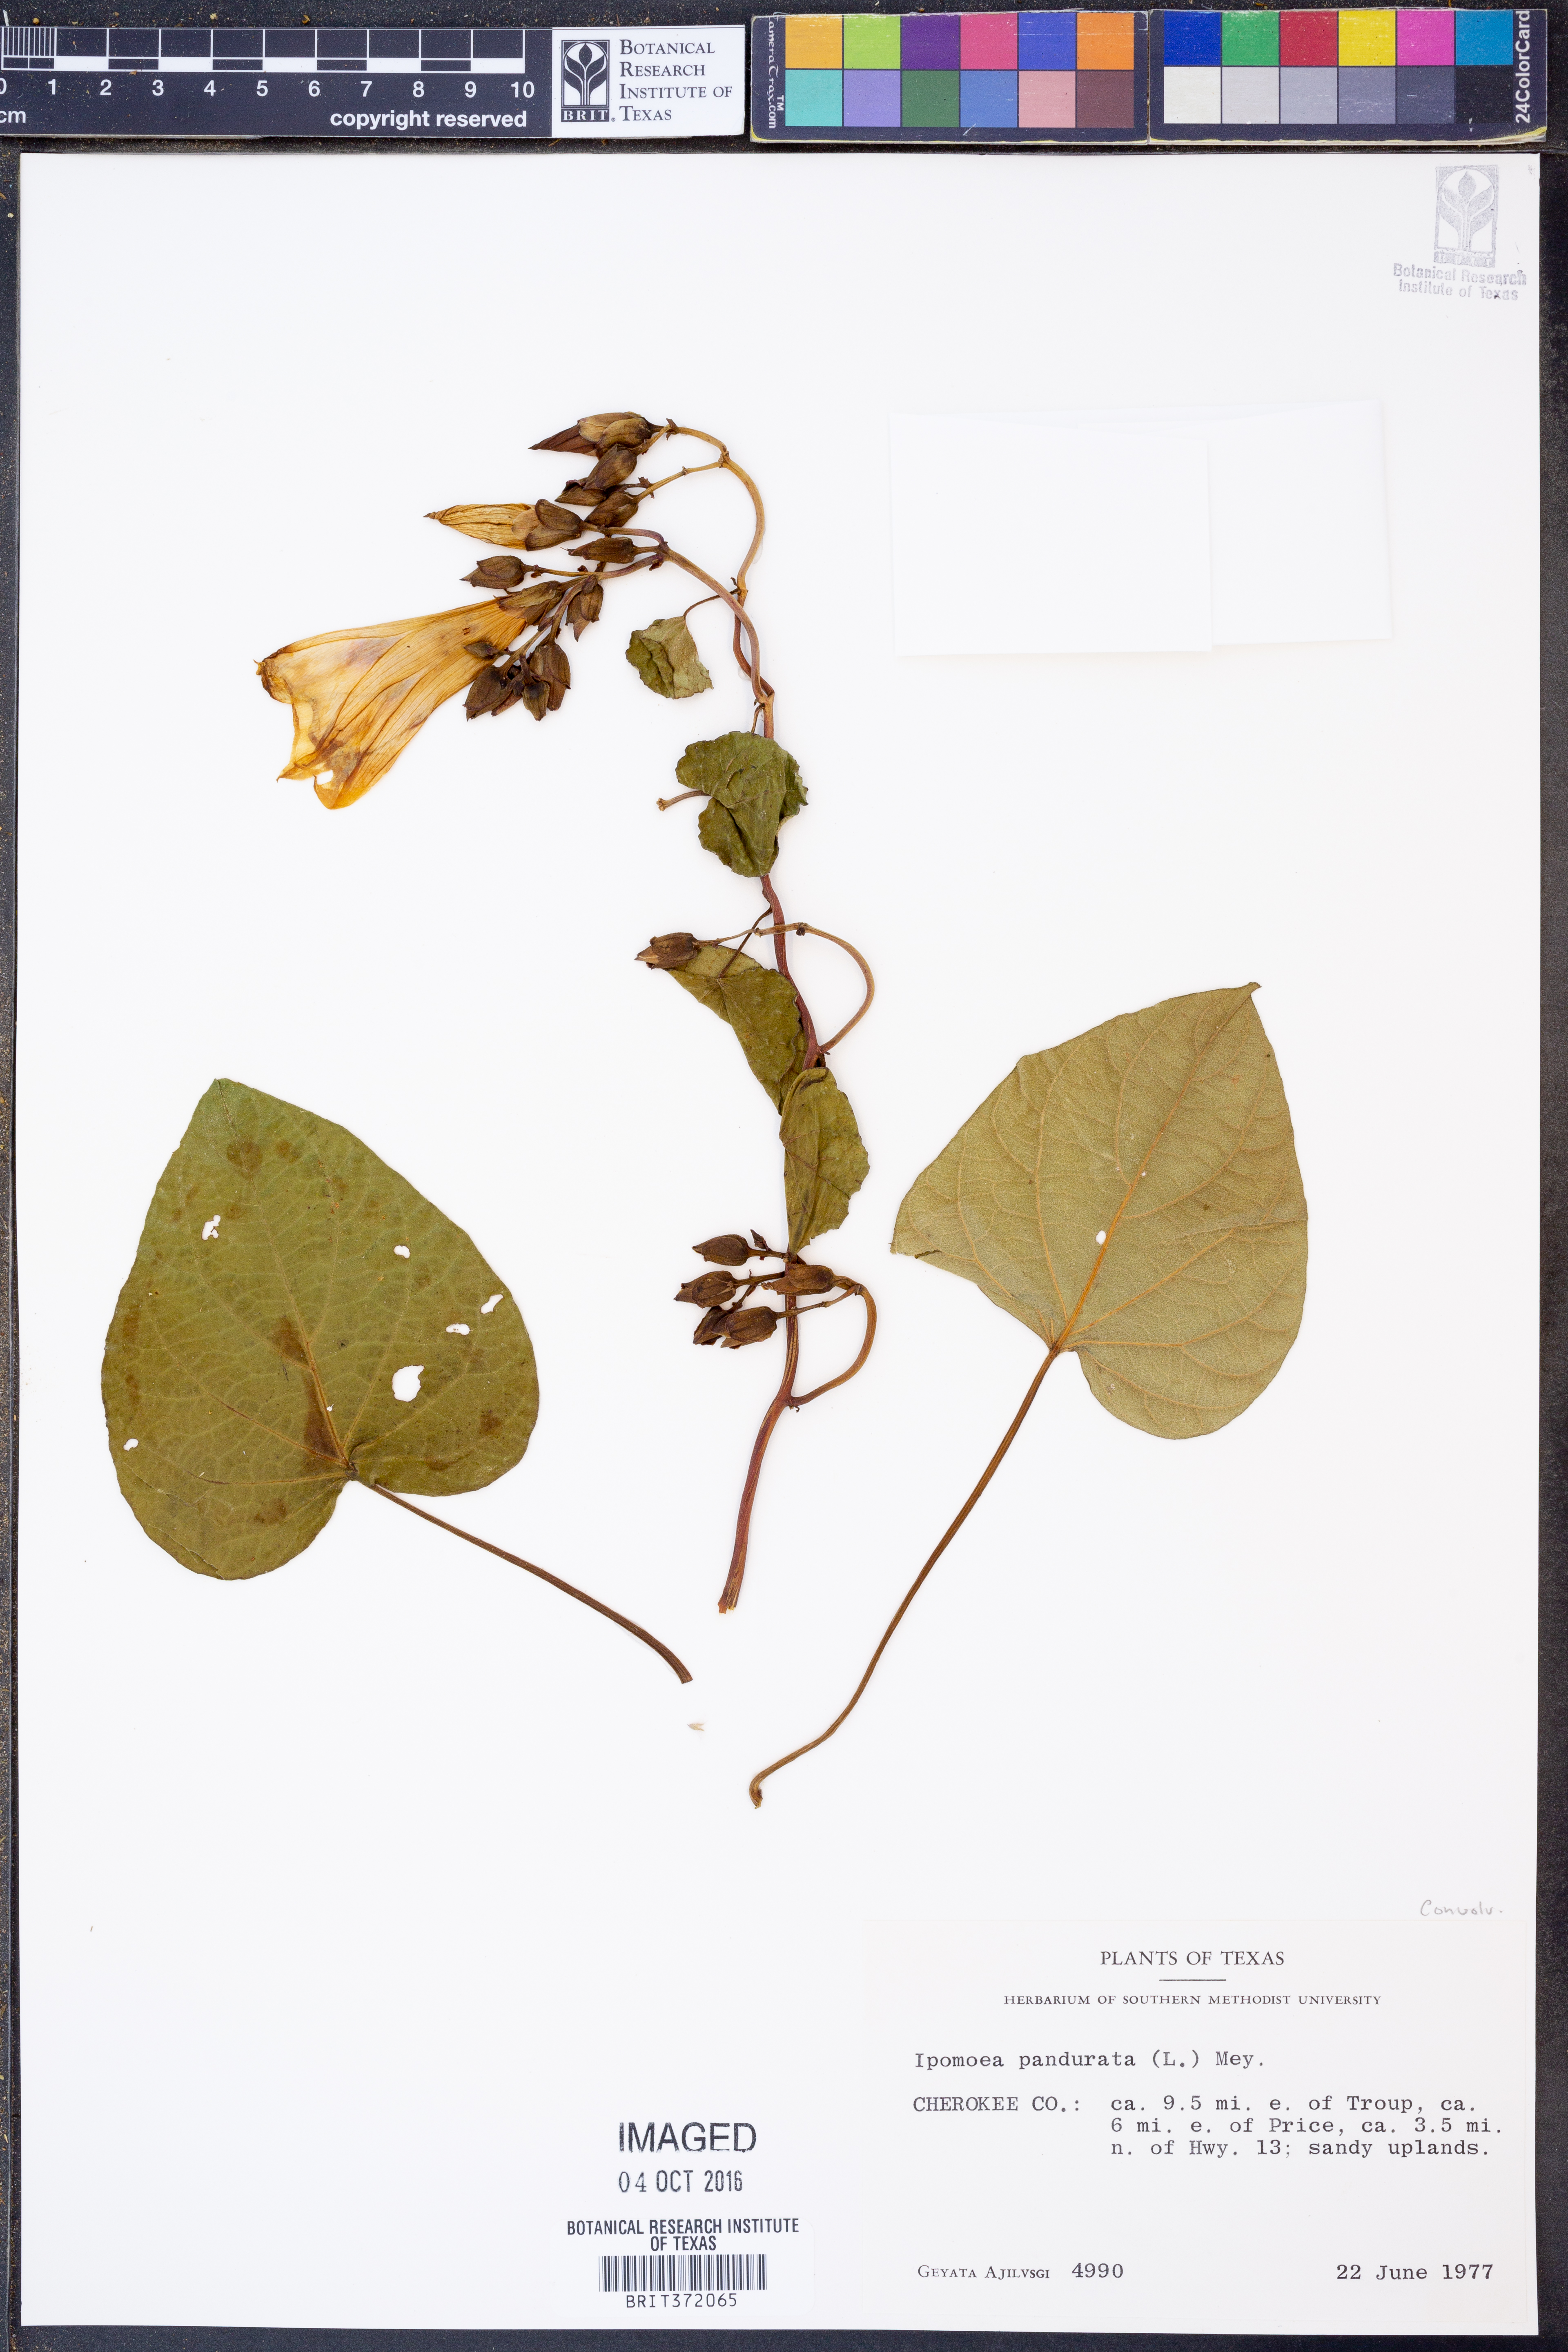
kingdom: Plantae
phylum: Tracheophyta
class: Magnoliopsida
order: Solanales
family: Convolvulaceae
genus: Ipomoea
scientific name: Ipomoea pandurata
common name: Man-of-the-earth
